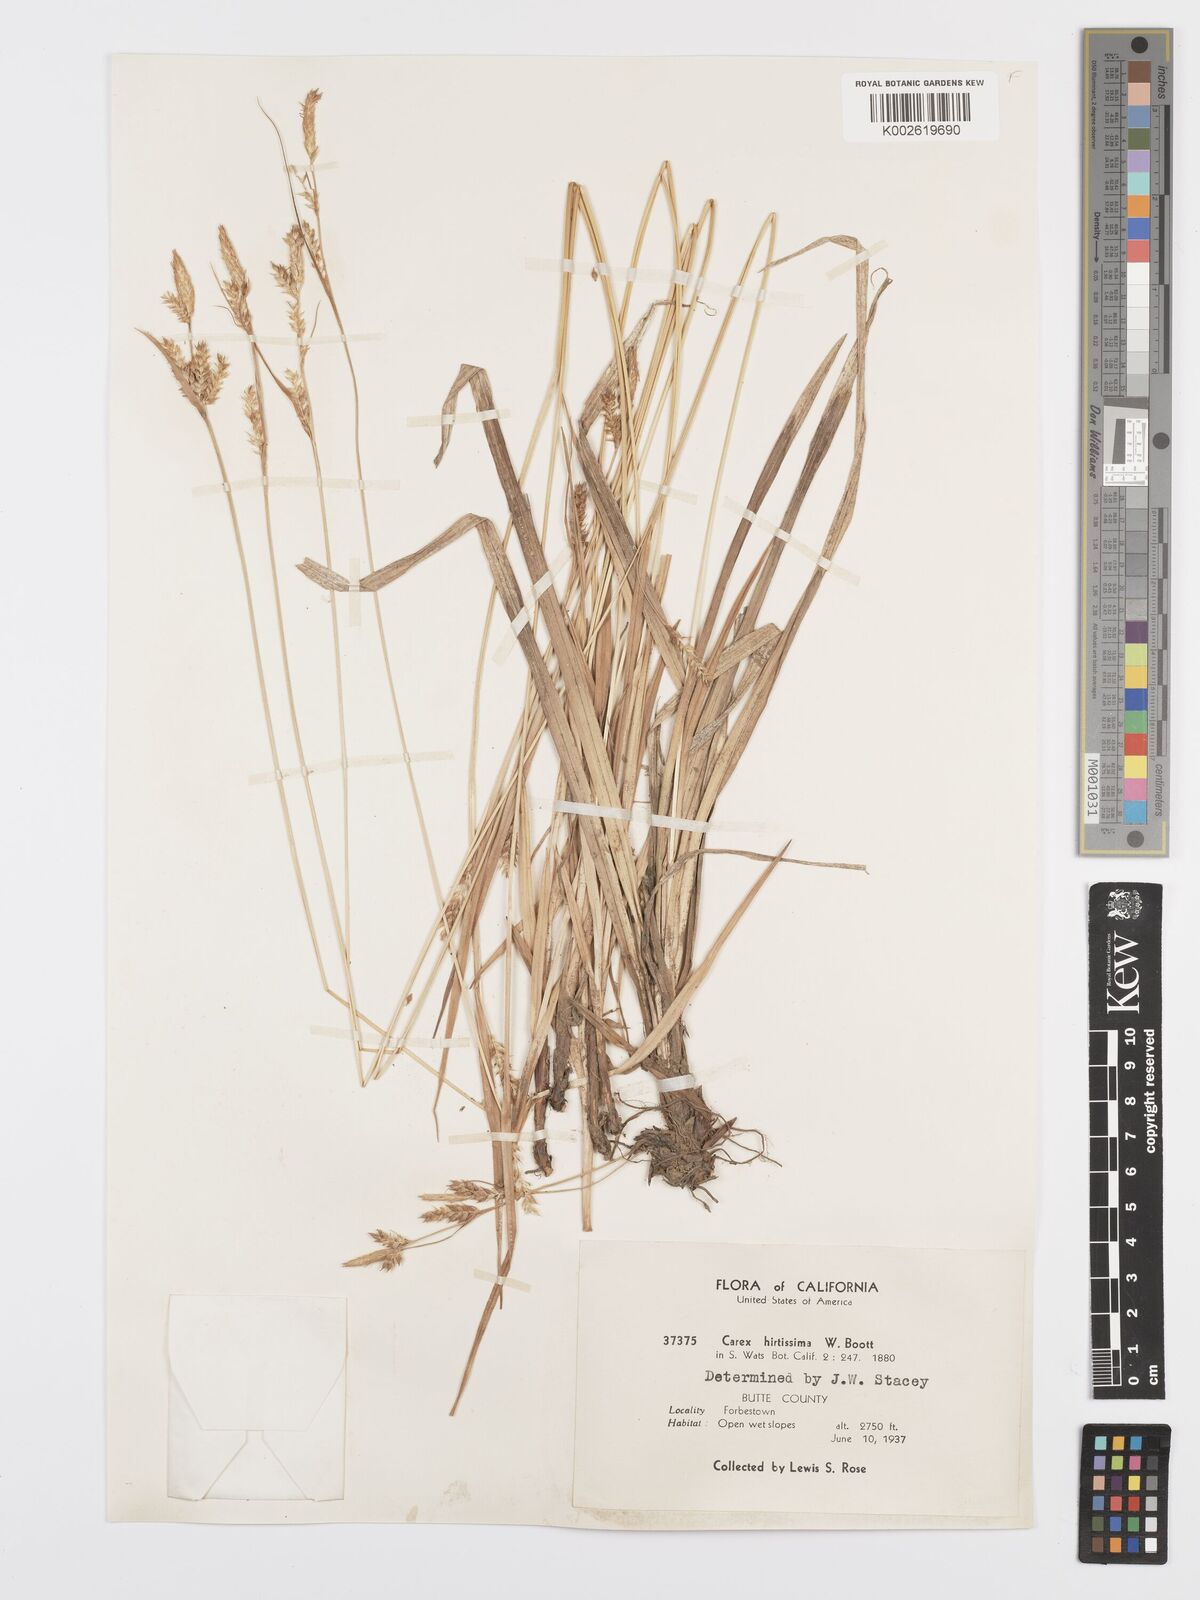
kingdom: Plantae
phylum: Tracheophyta
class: Liliopsida
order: Poales
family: Cyperaceae
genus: Carex
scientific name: Carex hirtissima
